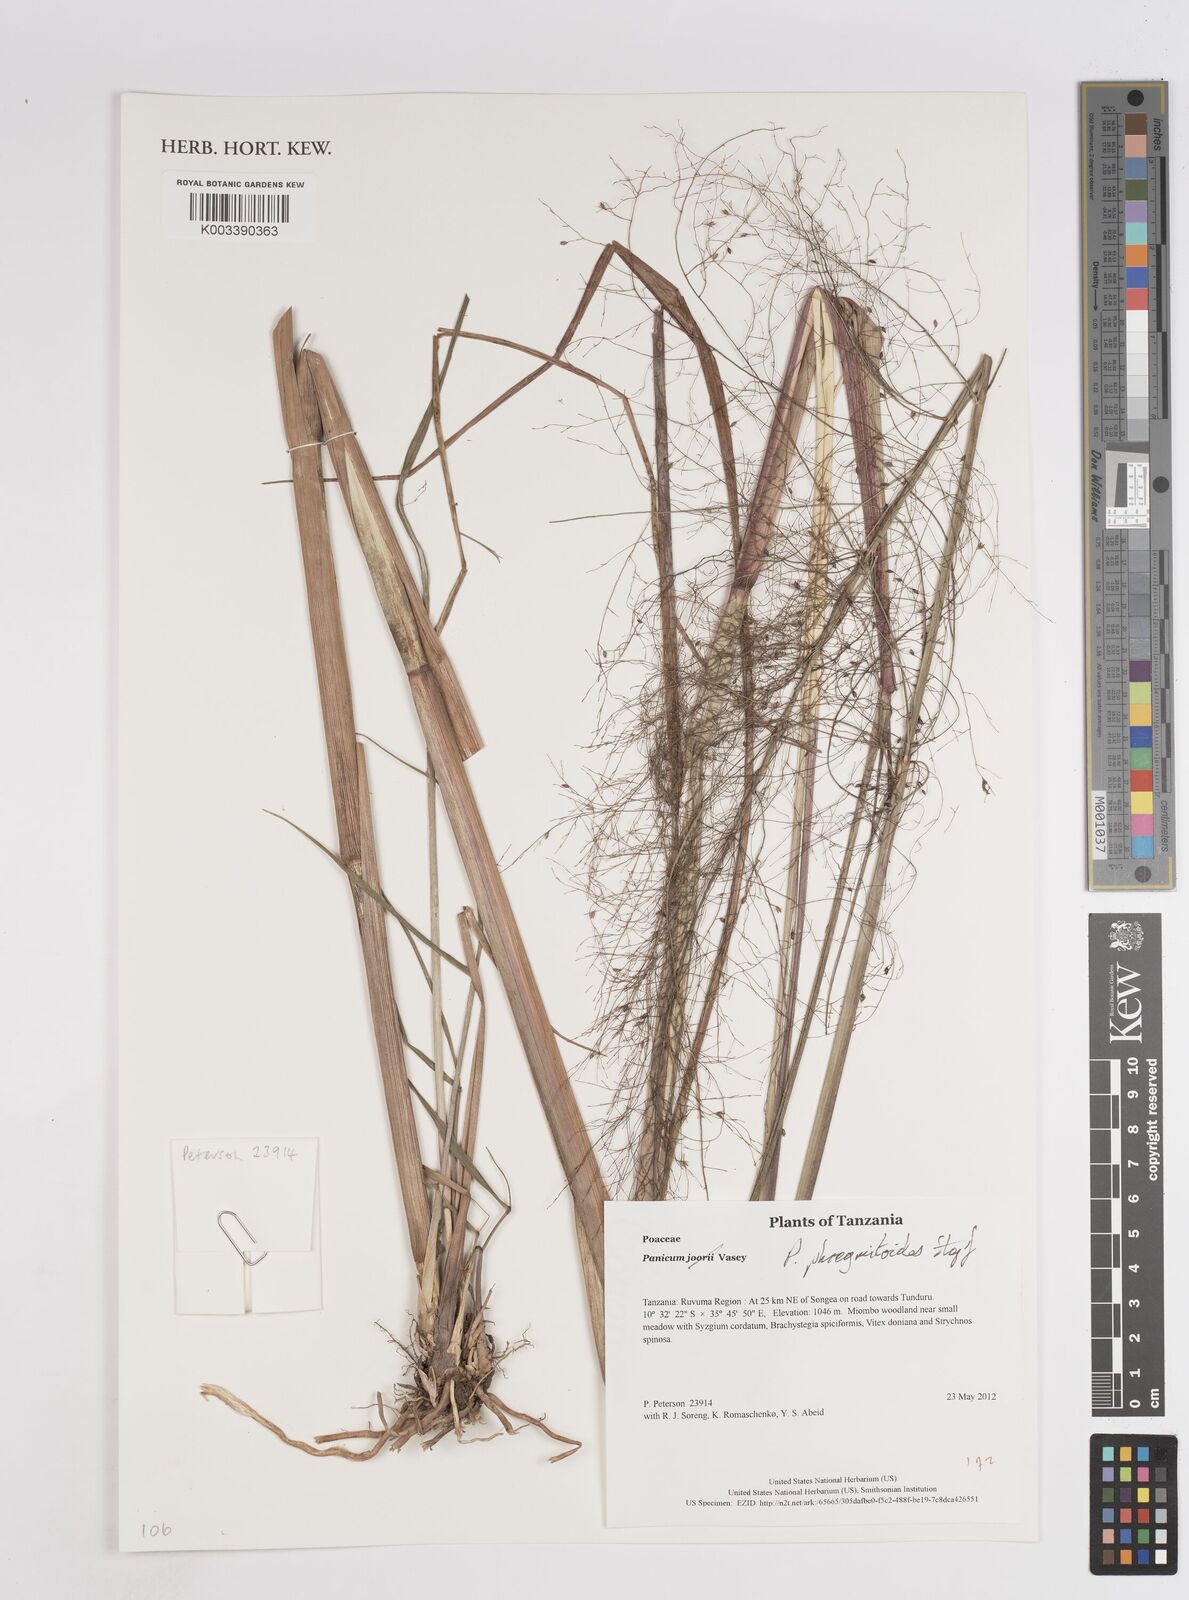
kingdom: Plantae
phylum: Tracheophyta
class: Liliopsida
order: Poales
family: Poaceae
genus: Panicum
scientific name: Panicum phragmitoides
